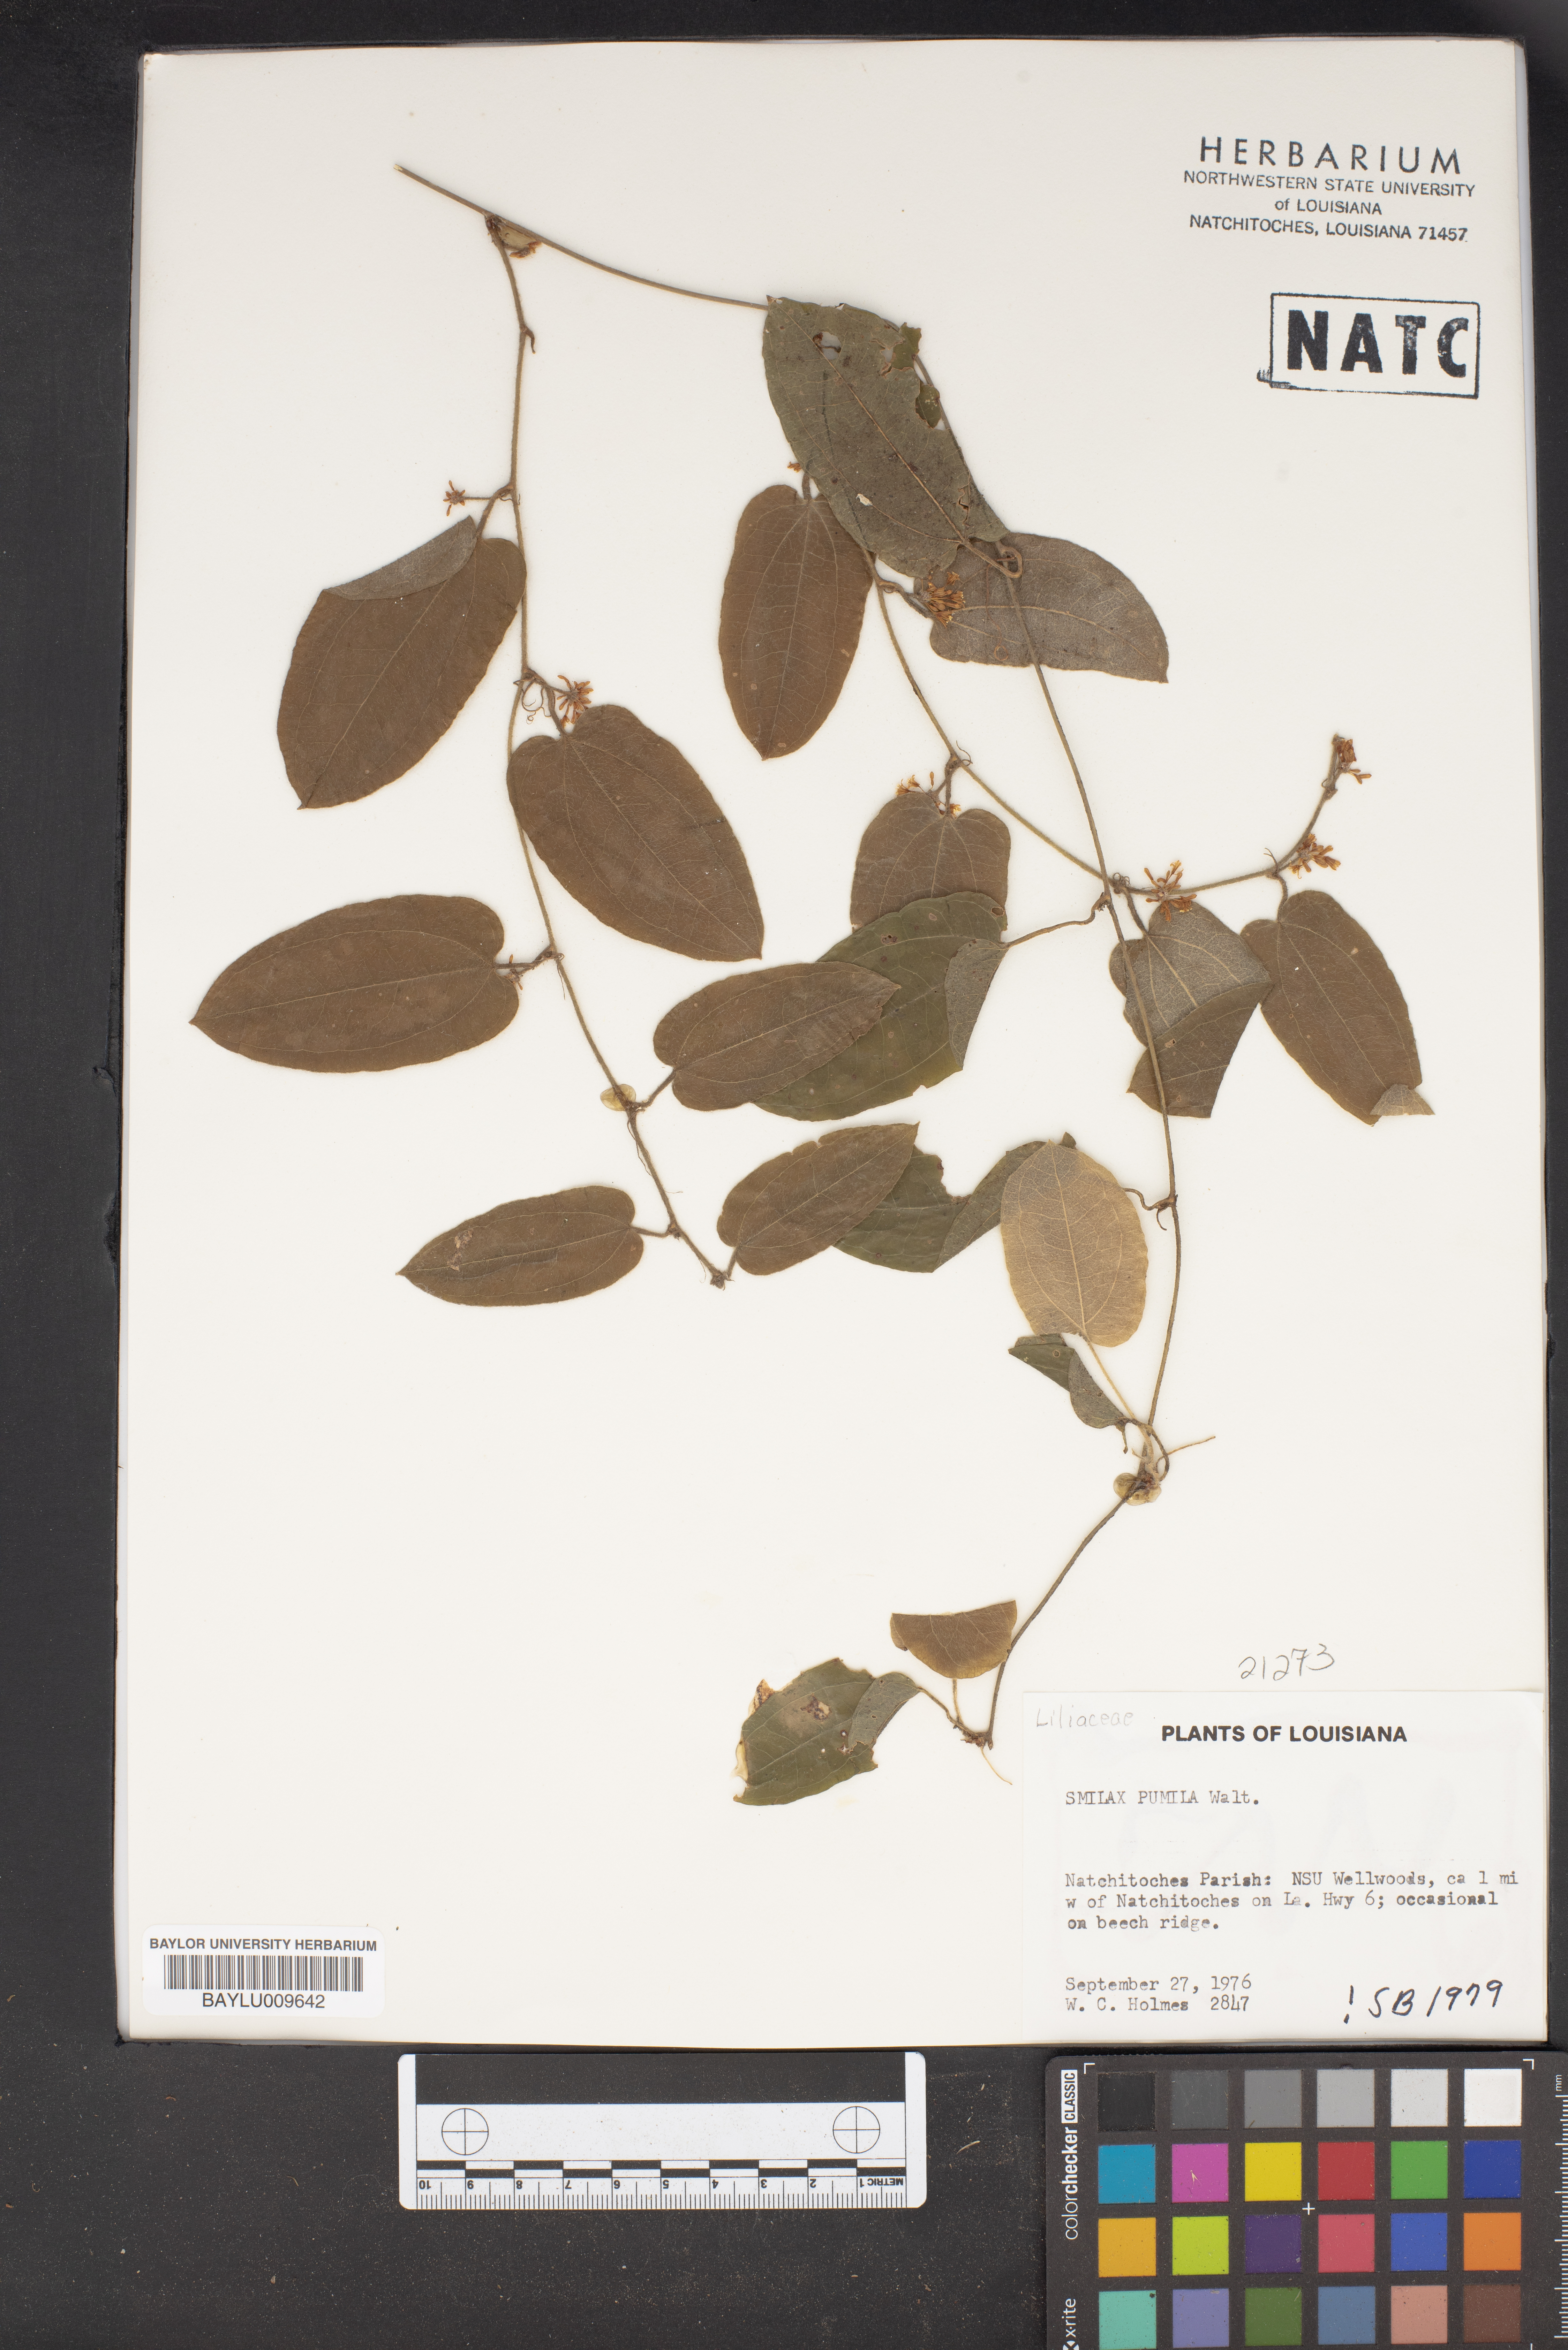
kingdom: Plantae
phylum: Tracheophyta
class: Liliopsida
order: Liliales
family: Smilacaceae
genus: Smilax
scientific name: Smilax pumila
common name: Sarsaparilla-vine
